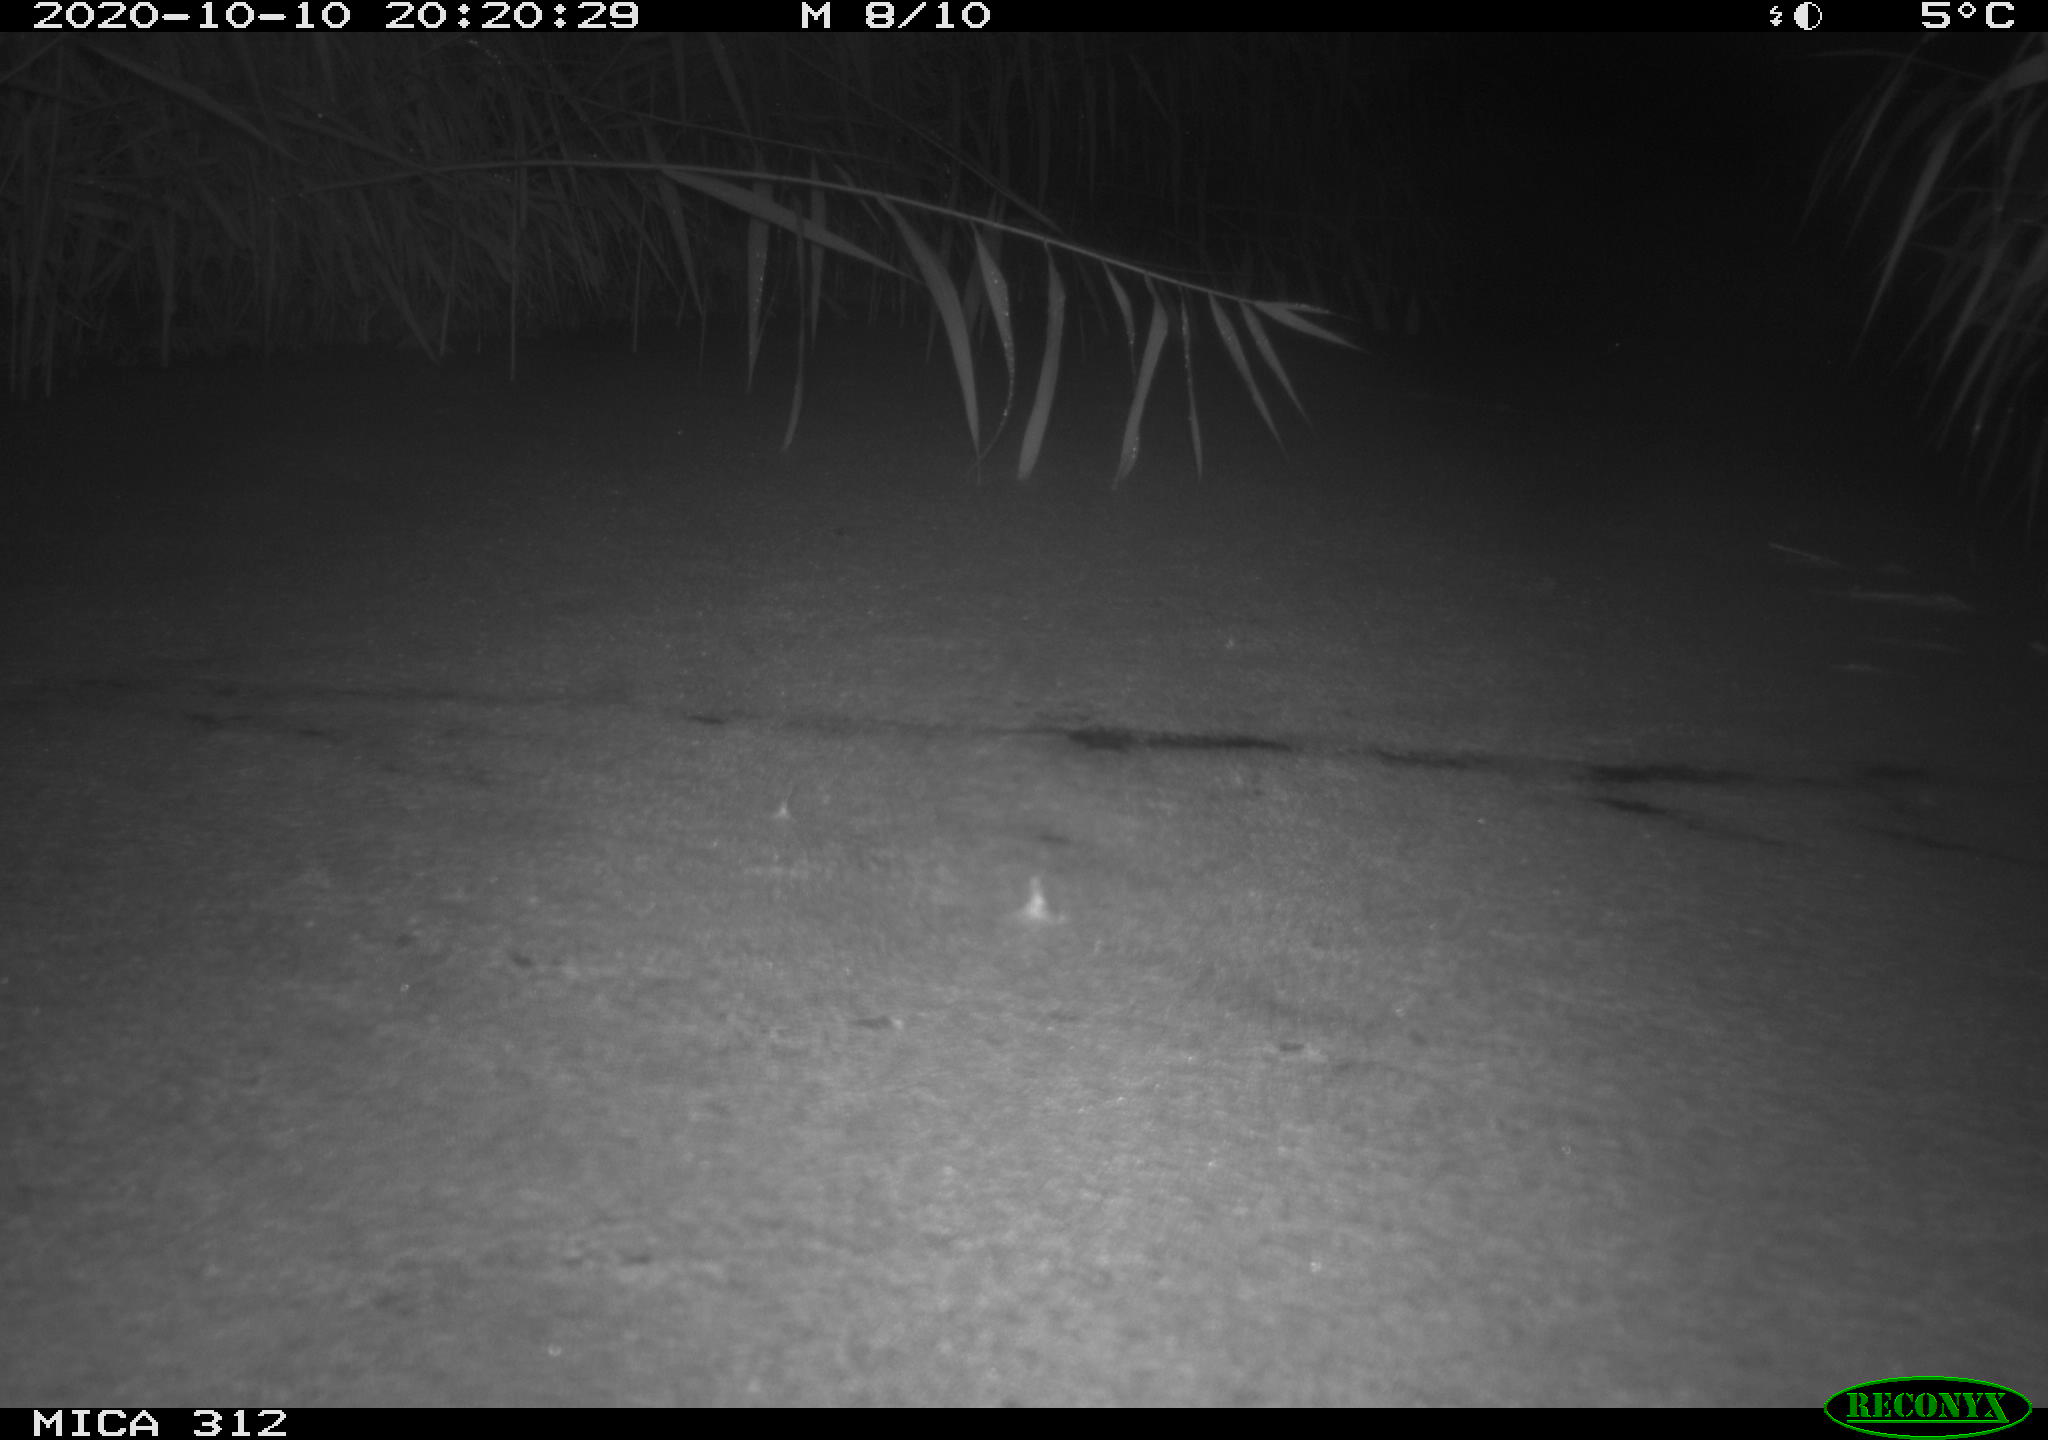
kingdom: Animalia
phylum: Chordata
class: Mammalia
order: Rodentia
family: Muridae
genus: Rattus
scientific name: Rattus norvegicus
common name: Brown rat
